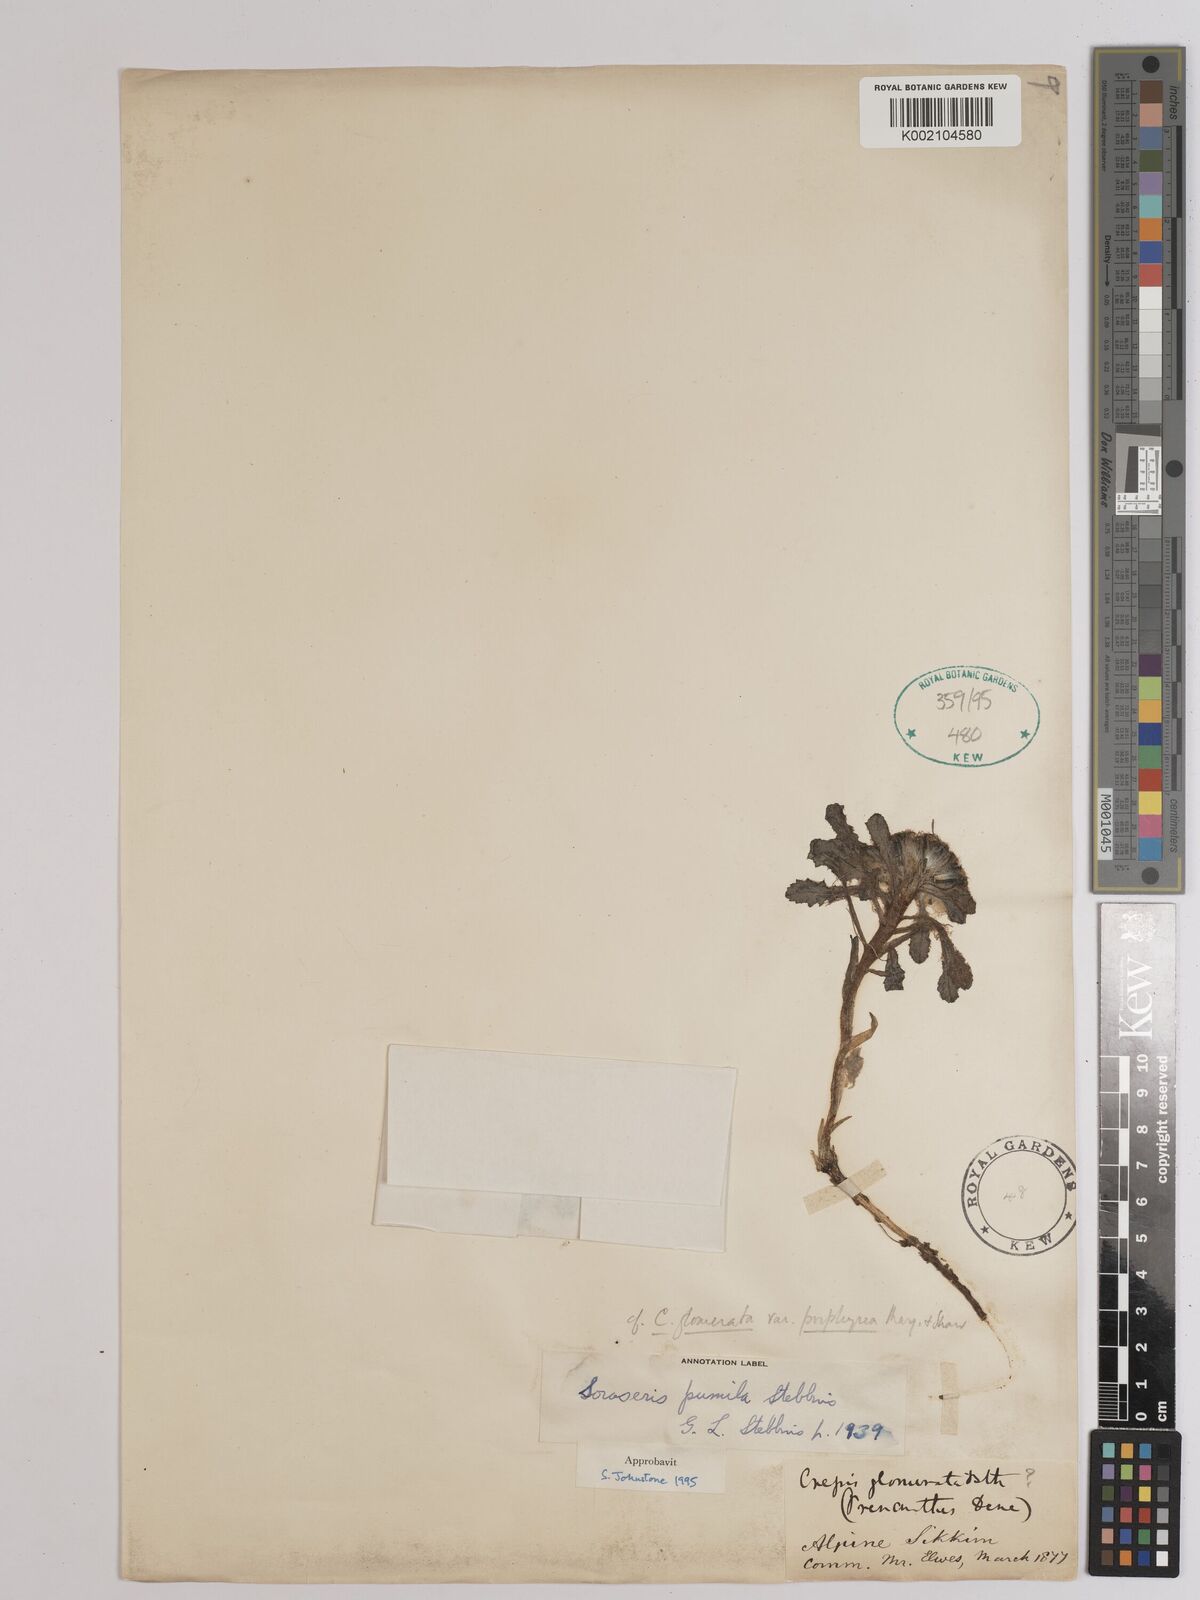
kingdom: Plantae
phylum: Tracheophyta
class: Magnoliopsida
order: Asterales
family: Asteraceae
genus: Soroseris
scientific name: Soroseris pumila
